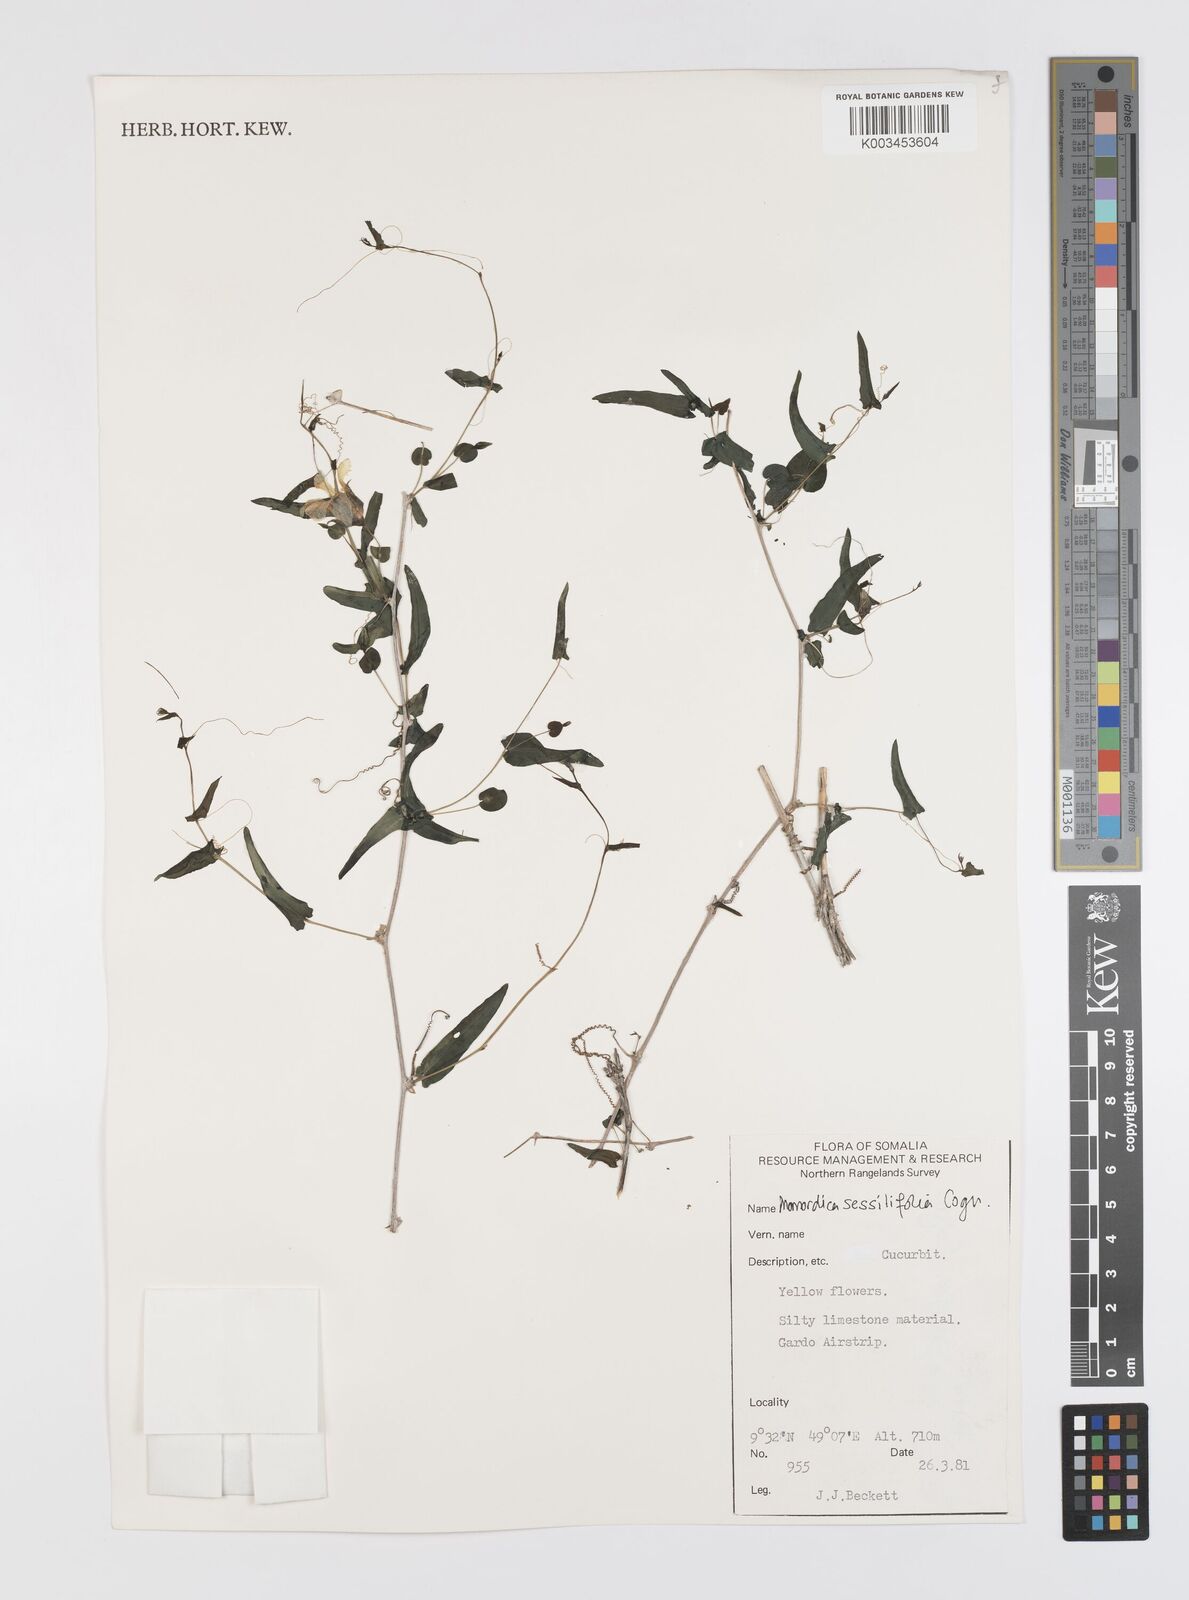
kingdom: Plantae
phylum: Tracheophyta
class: Magnoliopsida
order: Cucurbitales
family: Cucurbitaceae
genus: Momordica
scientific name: Momordica sessilifolia
